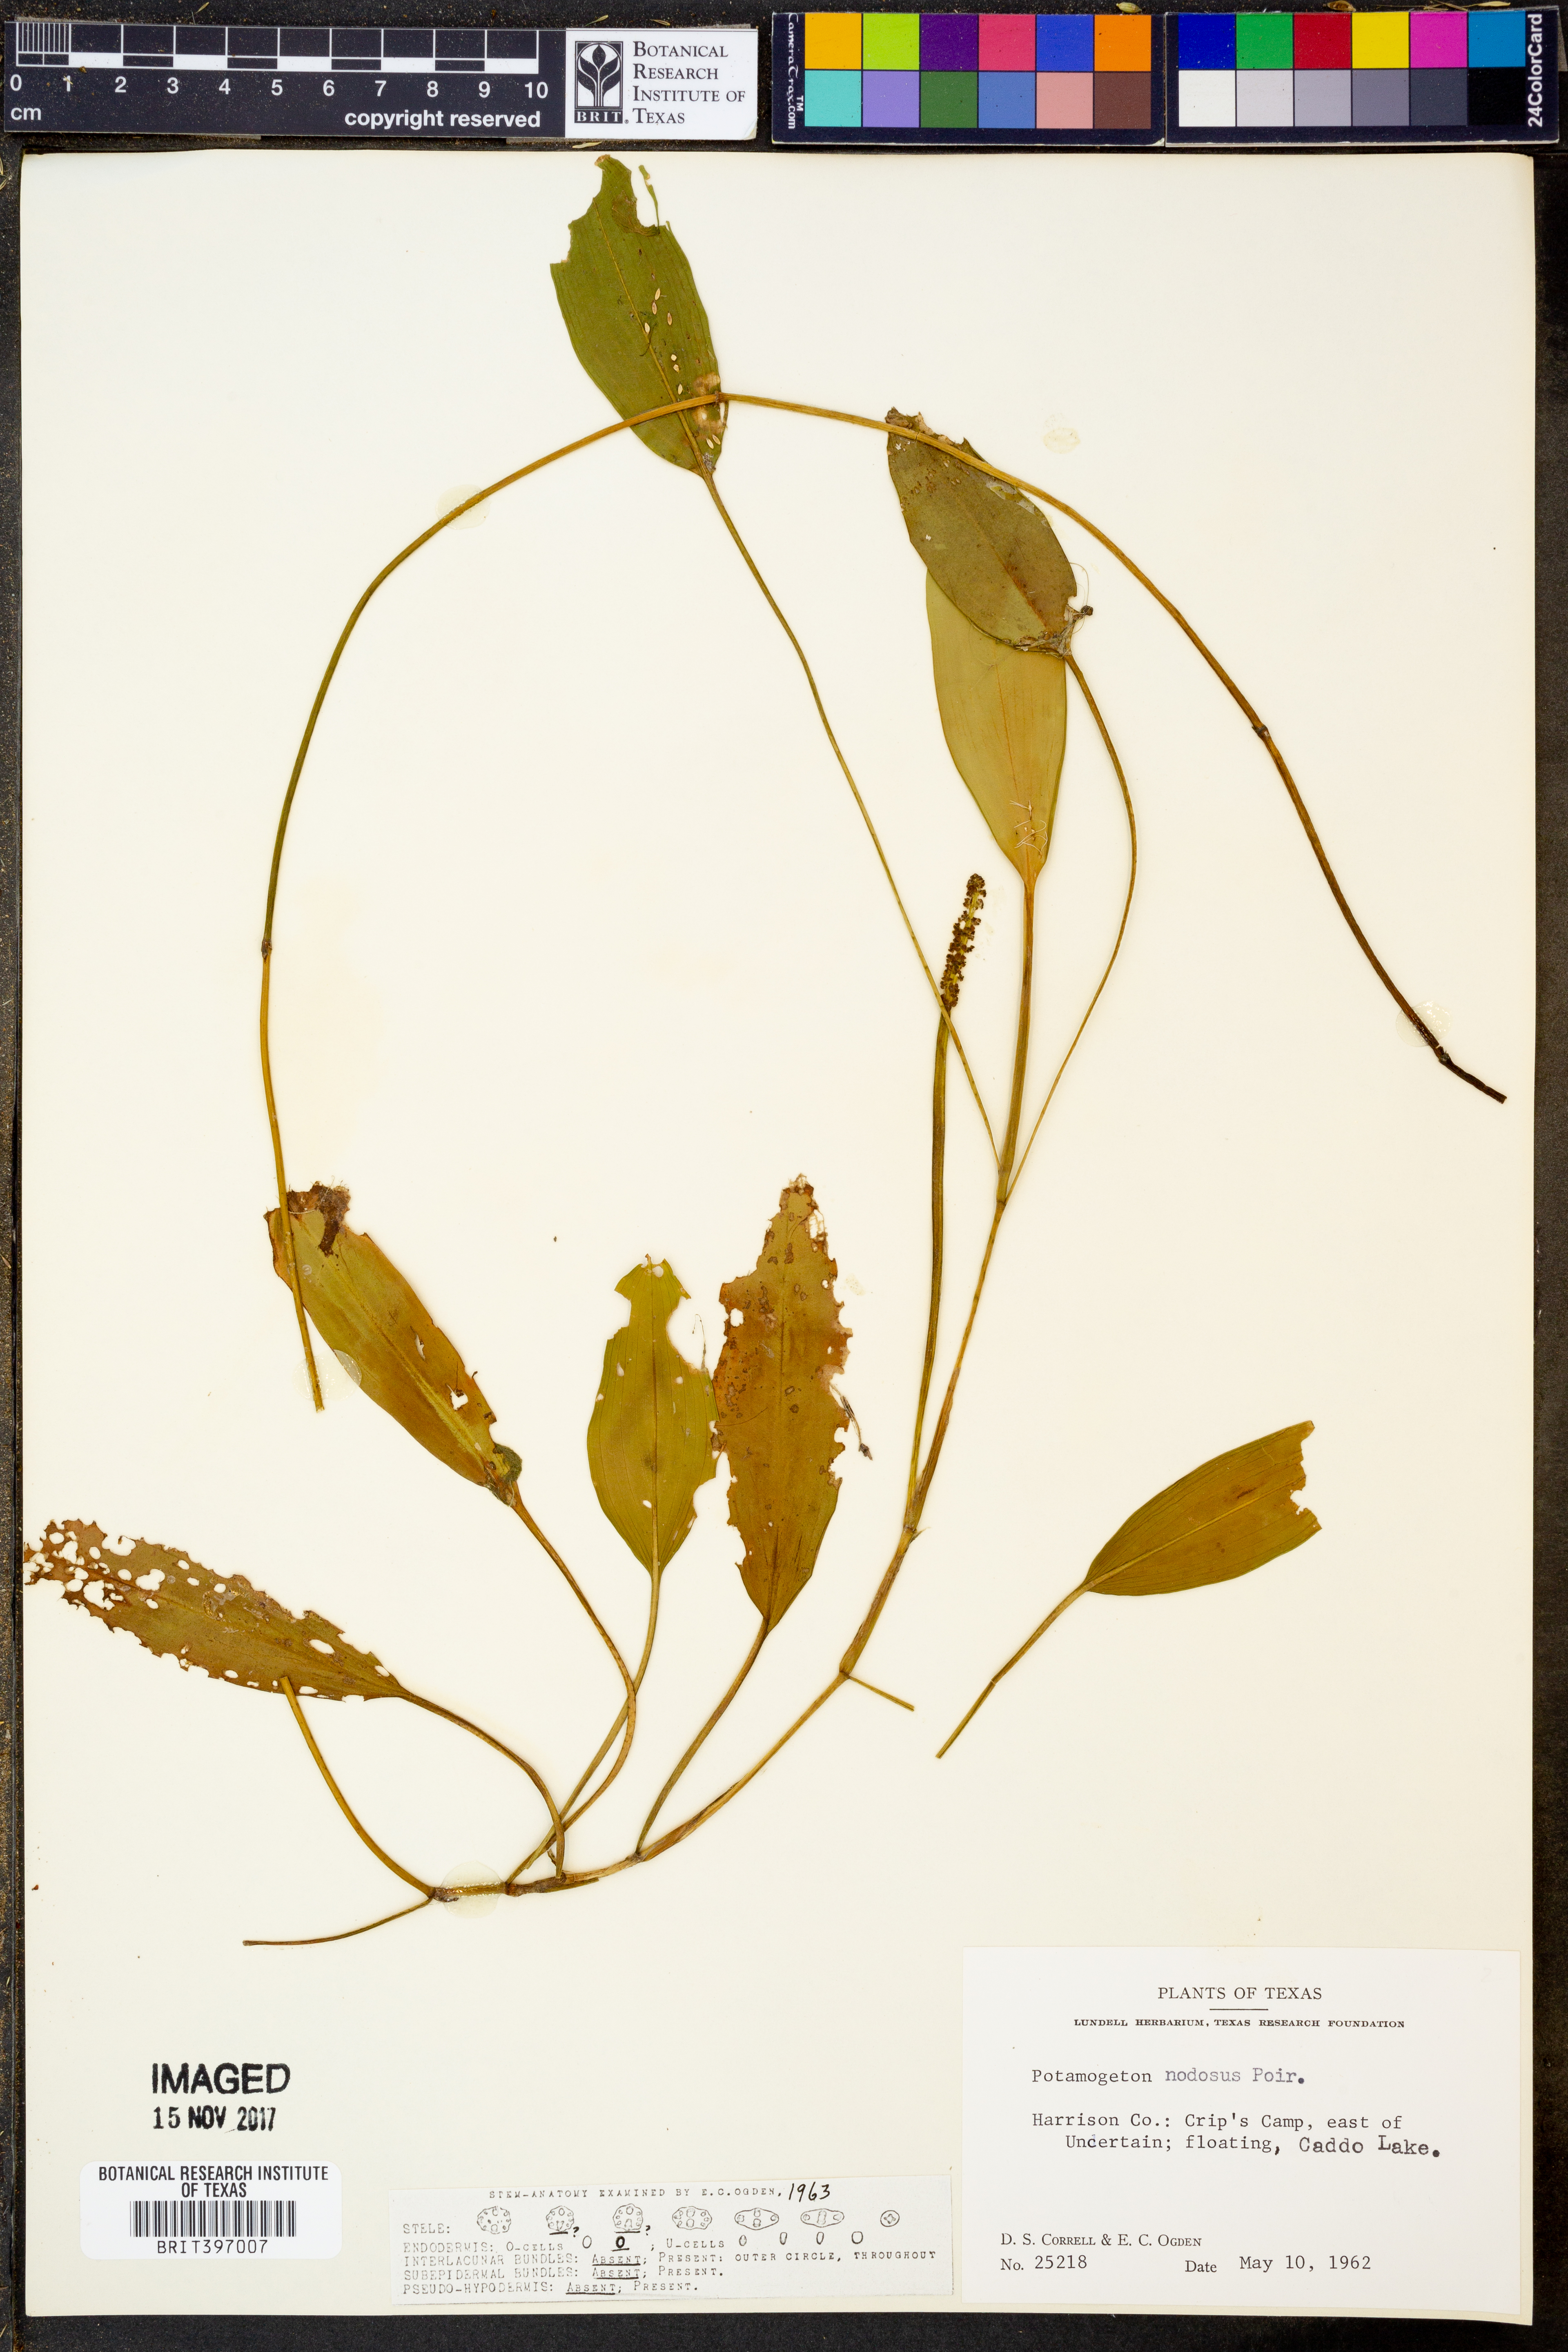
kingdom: Plantae
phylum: Tracheophyta
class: Liliopsida
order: Alismatales
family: Potamogetonaceae
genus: Potamogeton
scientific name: Potamogeton nodosus
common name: Loddon pondweed
